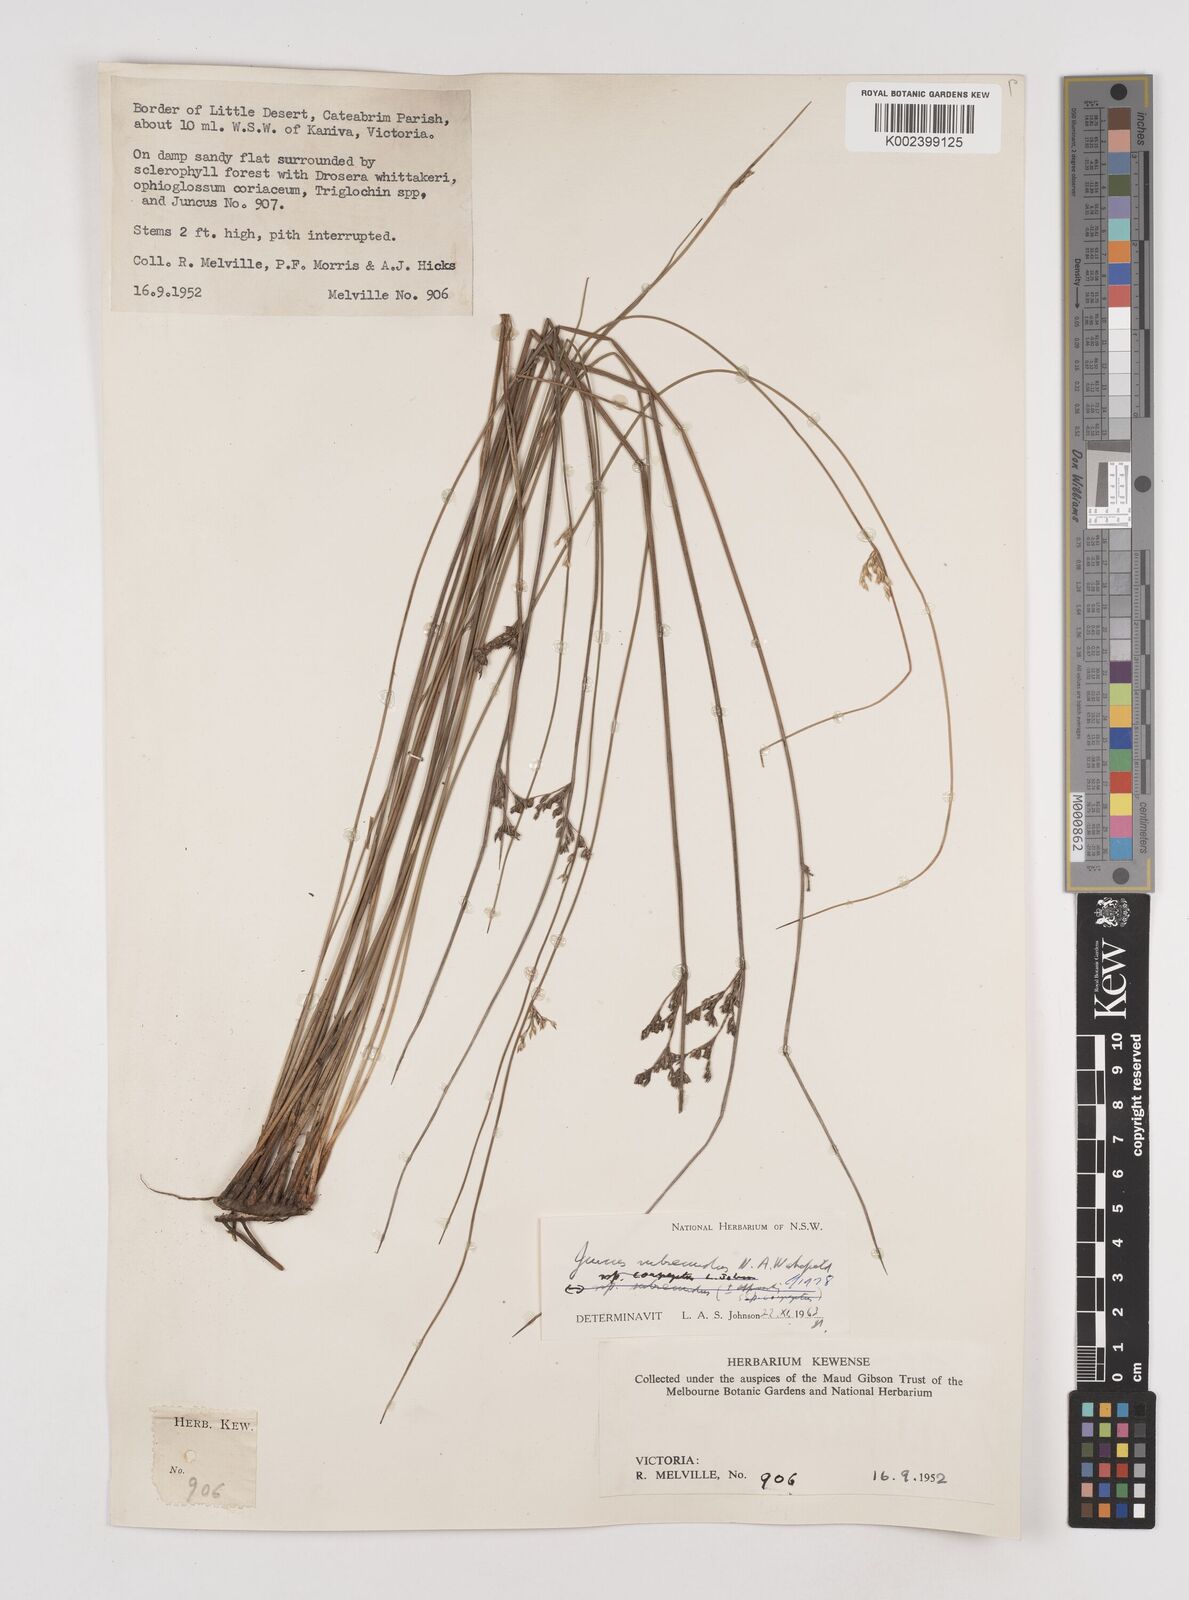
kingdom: Plantae
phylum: Tracheophyta
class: Liliopsida
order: Poales
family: Juncaceae
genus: Juncus
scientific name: Juncus subsecundus
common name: Fingered rush
